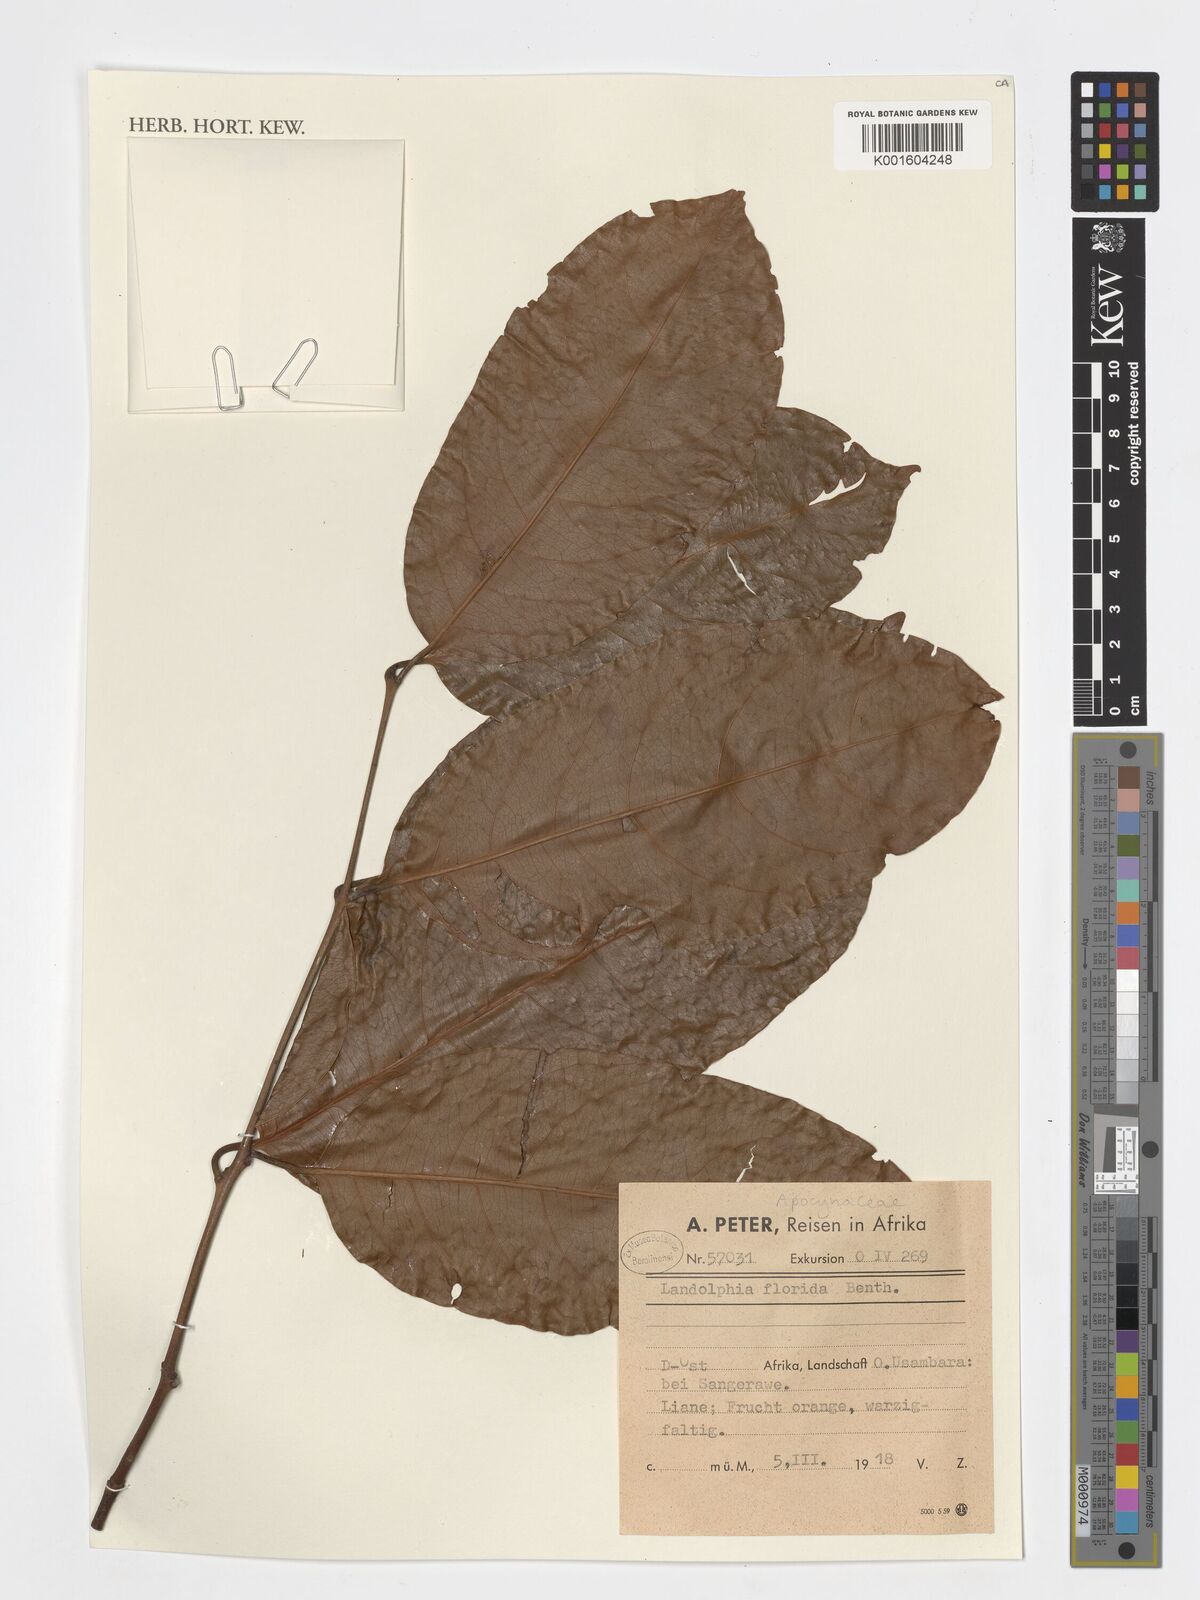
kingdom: Plantae
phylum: Tracheophyta
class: Magnoliopsida
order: Gentianales
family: Apocynaceae
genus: Saba
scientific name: Saba comorensis
